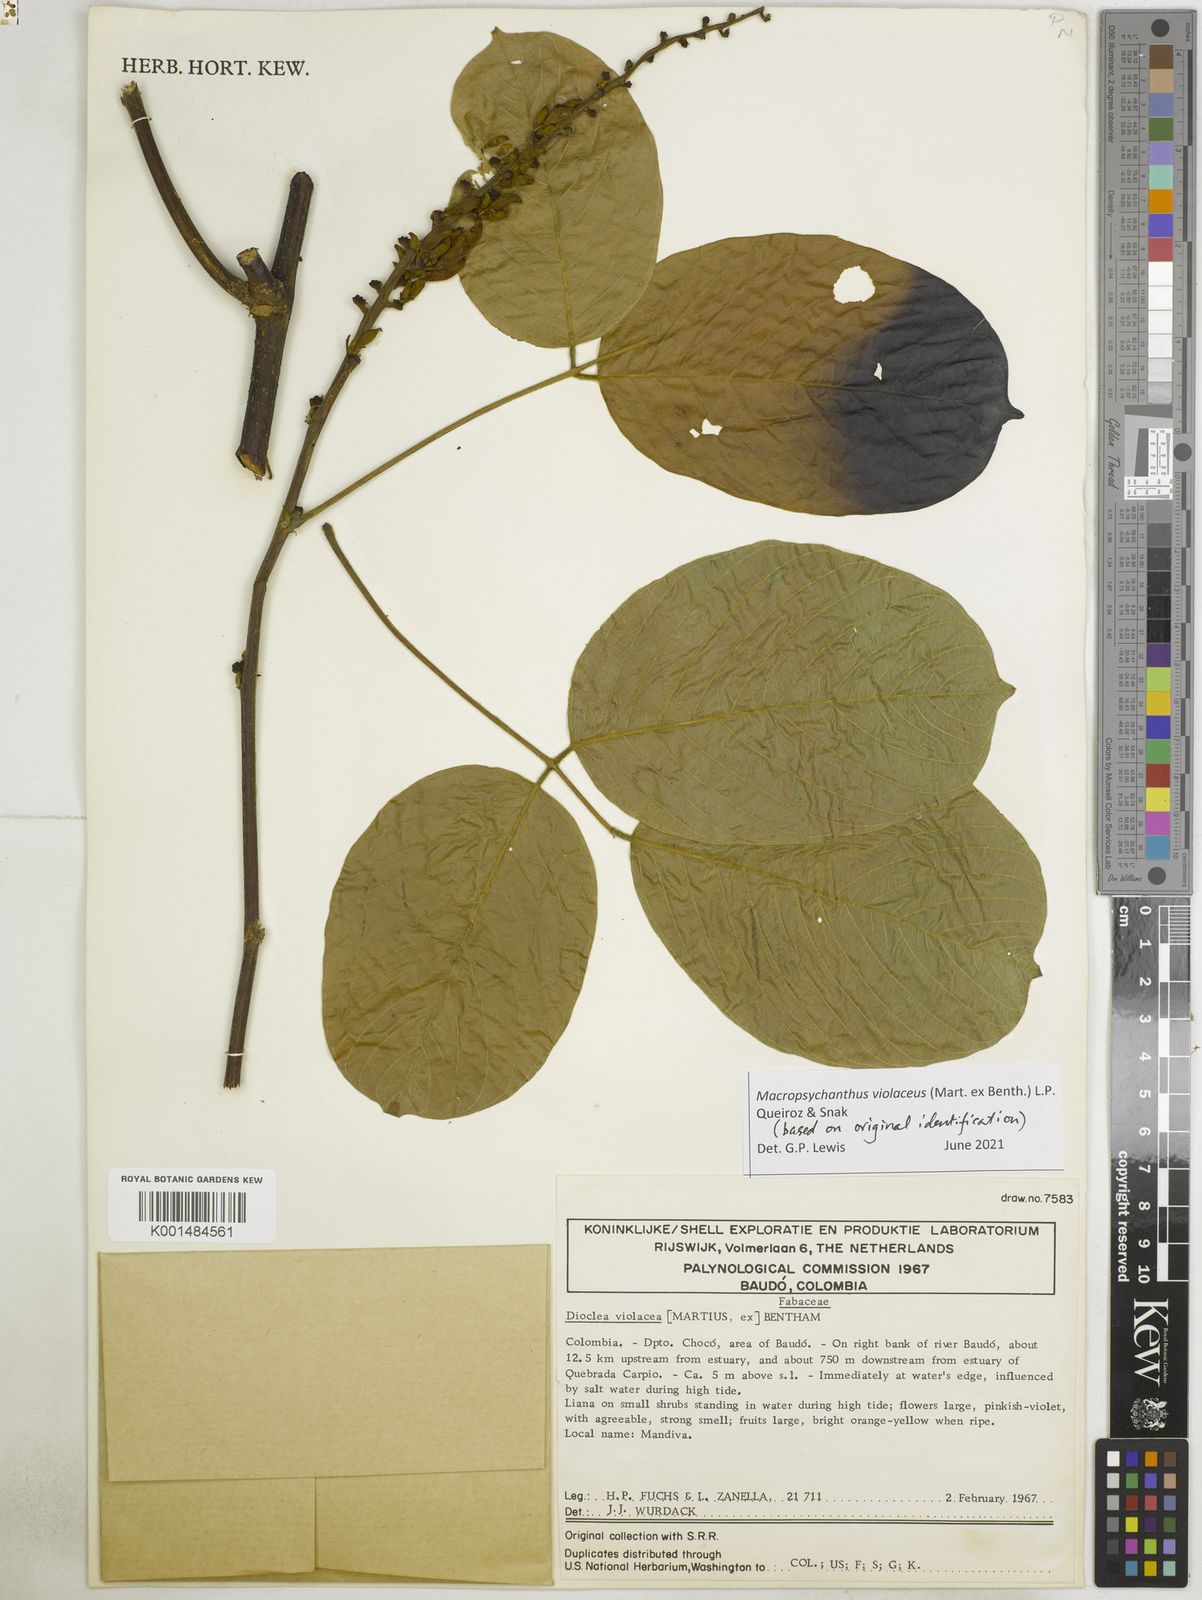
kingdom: Plantae
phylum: Tracheophyta
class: Magnoliopsida
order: Fabales
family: Fabaceae
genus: Macropsychanthus
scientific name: Macropsychanthus
